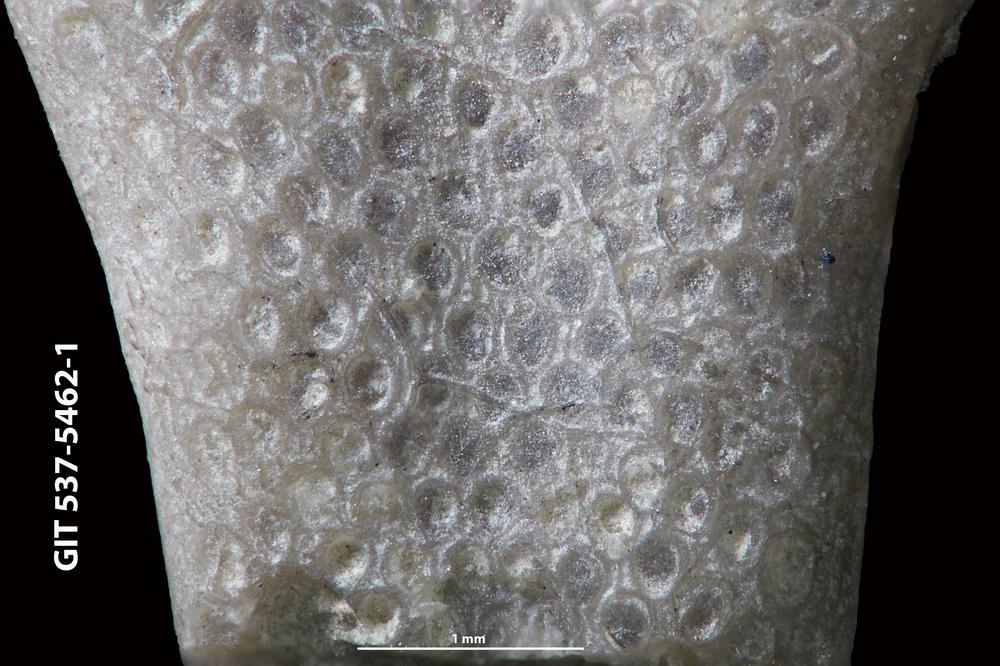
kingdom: Animalia
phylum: Bryozoa
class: Stenolaemata
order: Cyclostomatida
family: Corynotrypidae
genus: Corynotrypa
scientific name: Corynotrypa
